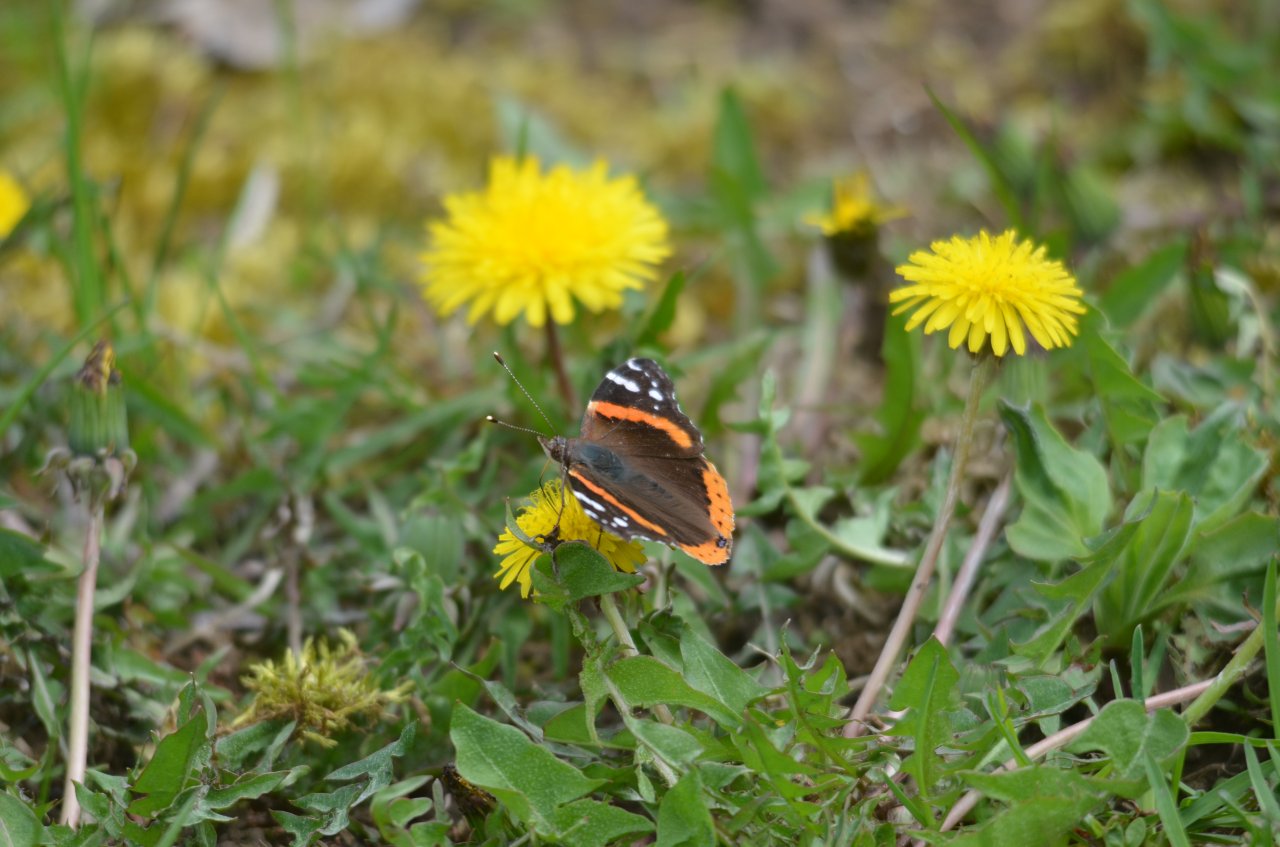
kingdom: Animalia
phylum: Arthropoda
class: Insecta
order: Lepidoptera
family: Nymphalidae
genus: Vanessa
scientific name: Vanessa atalanta
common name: Red Admiral
